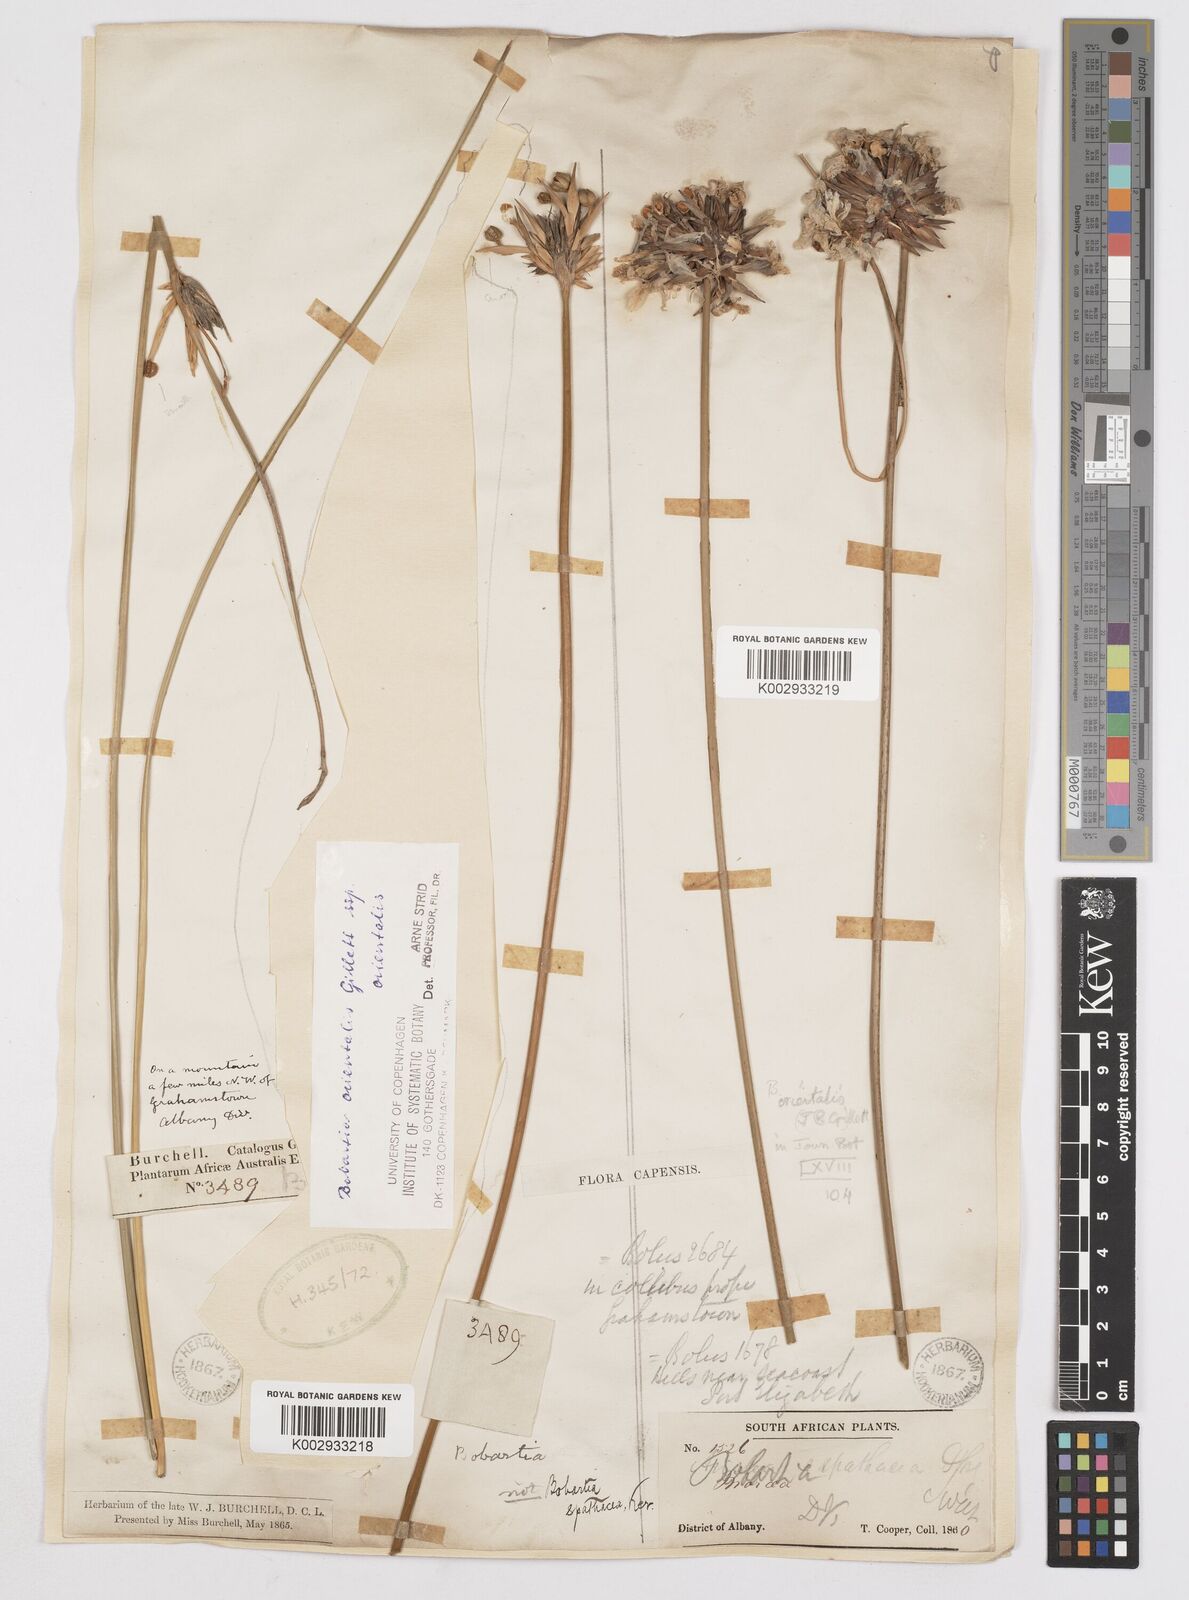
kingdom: Plantae
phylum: Tracheophyta
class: Liliopsida
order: Asparagales
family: Iridaceae
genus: Bobartia
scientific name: Bobartia orientalis
